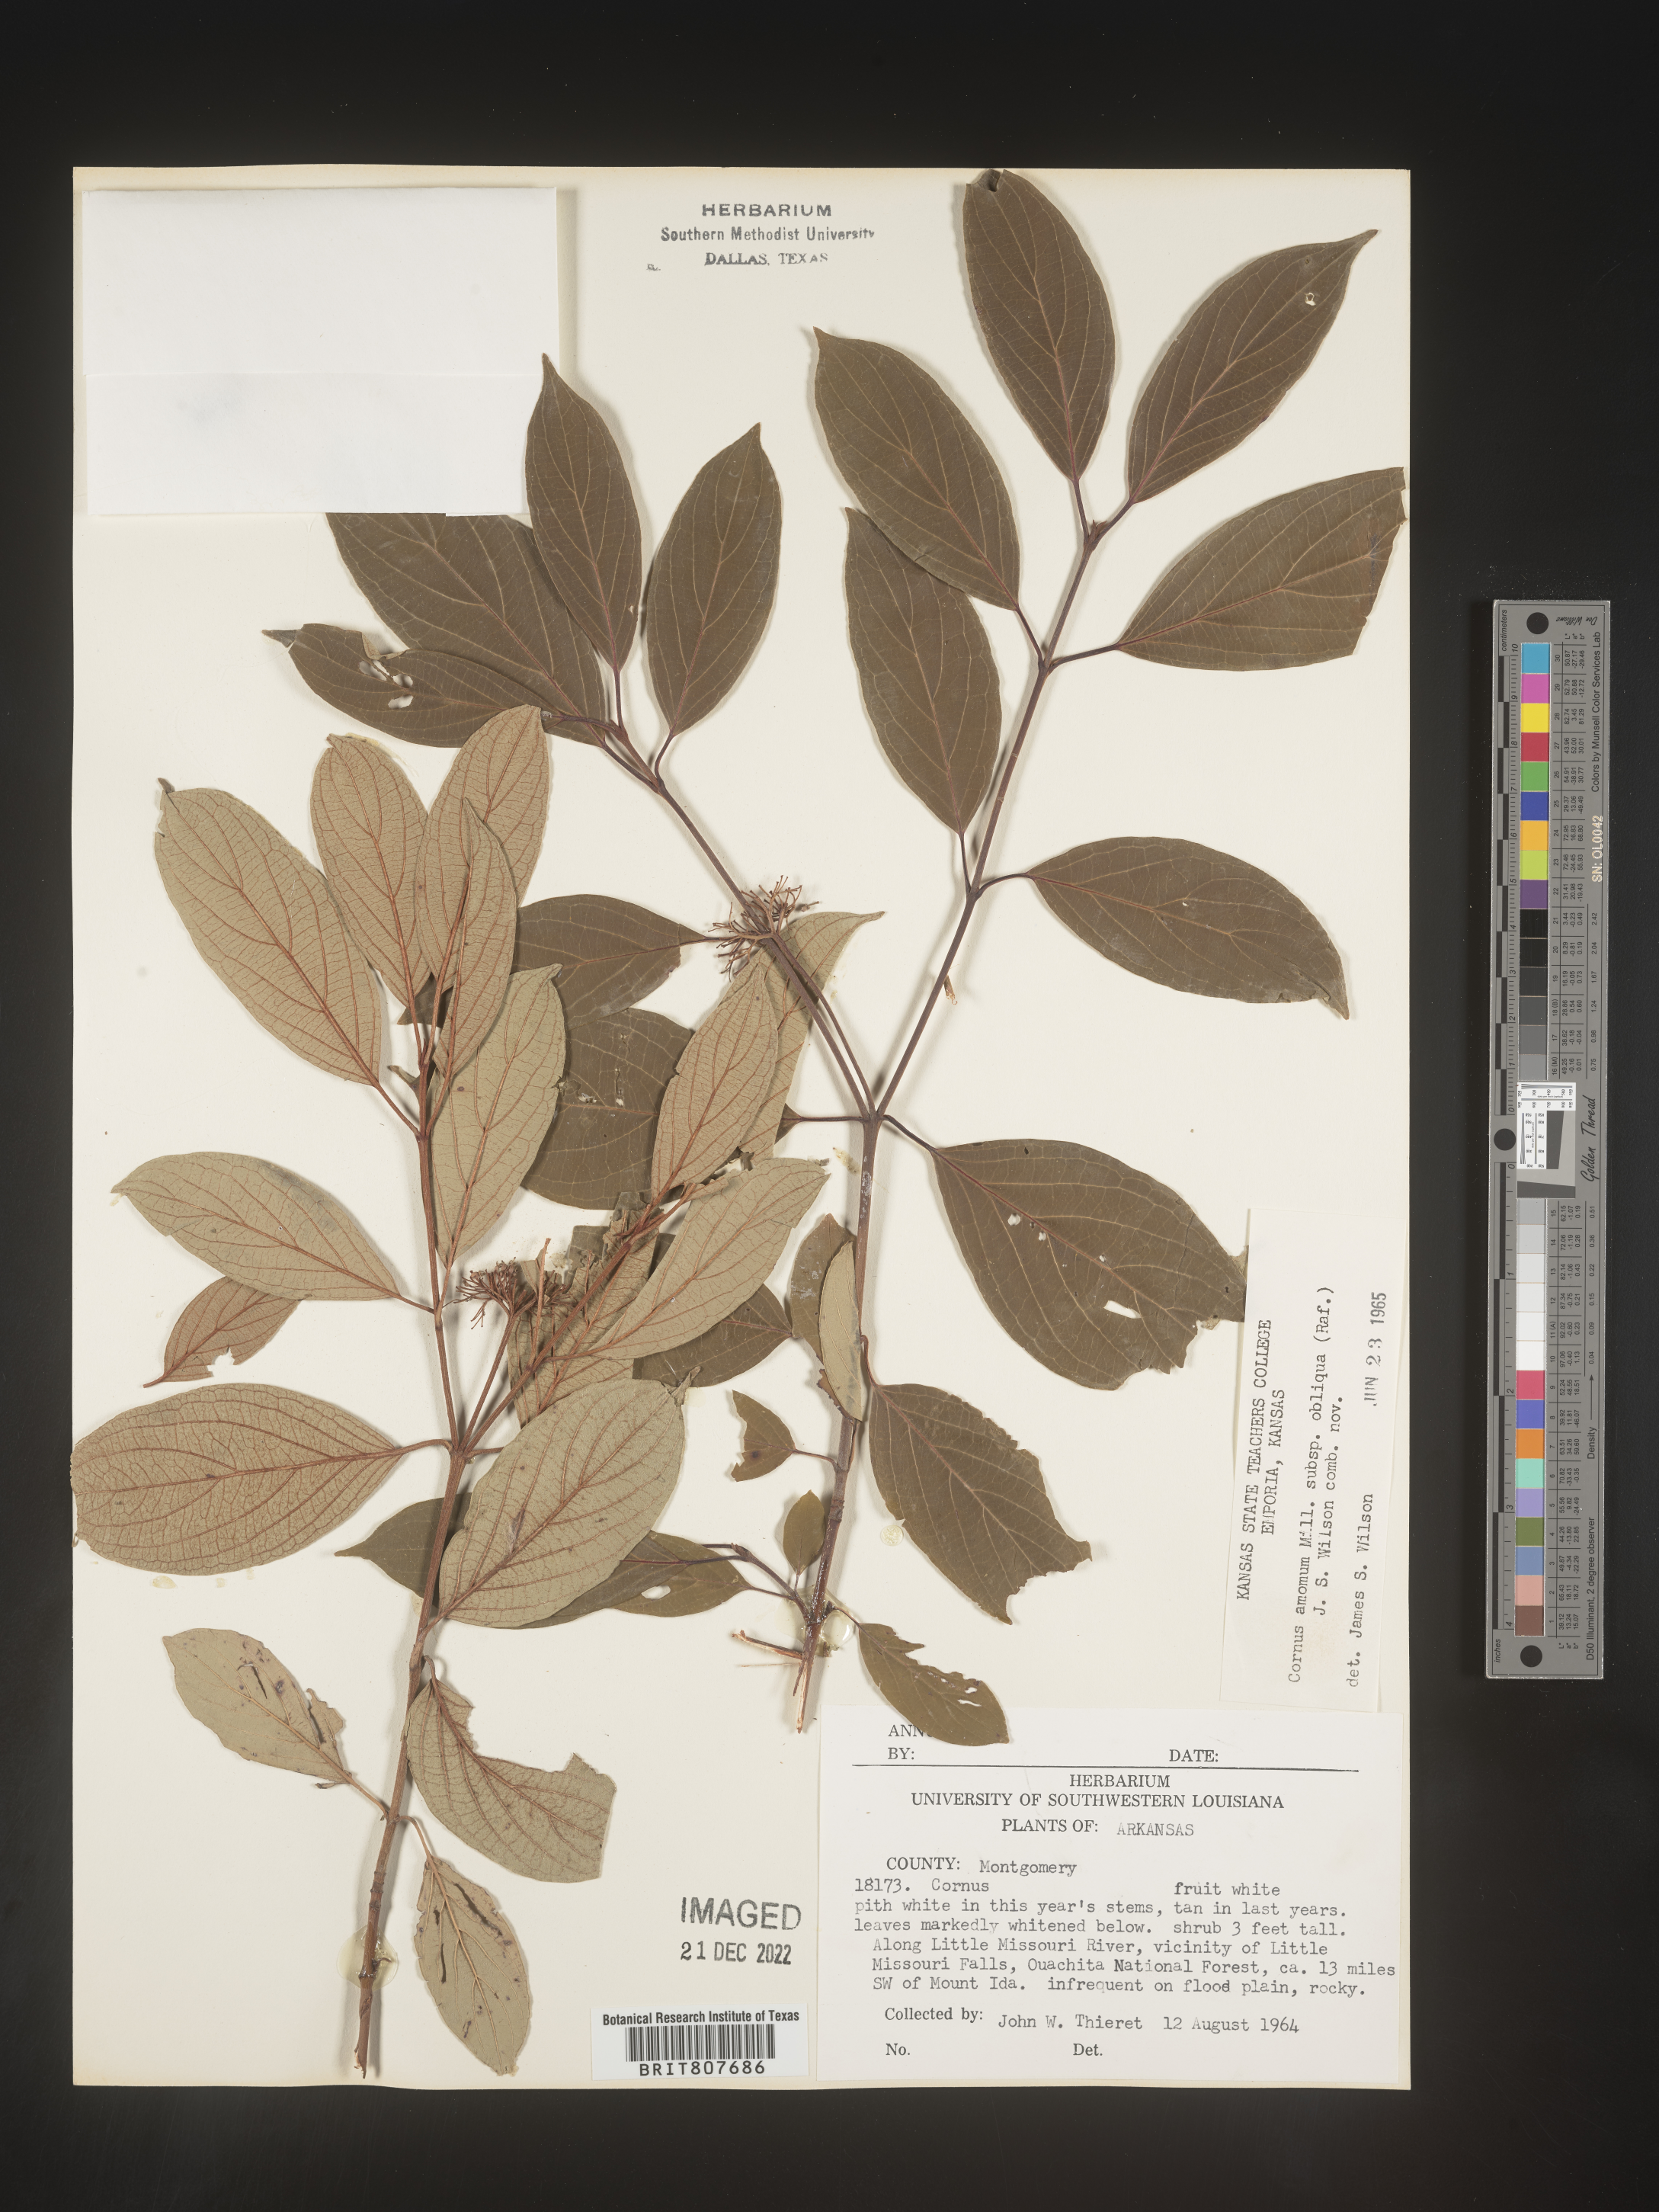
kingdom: Plantae
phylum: Tracheophyta
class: Magnoliopsida
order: Cornales
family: Cornaceae
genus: Cornus
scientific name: Cornus obliqua
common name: Pale dogwood
